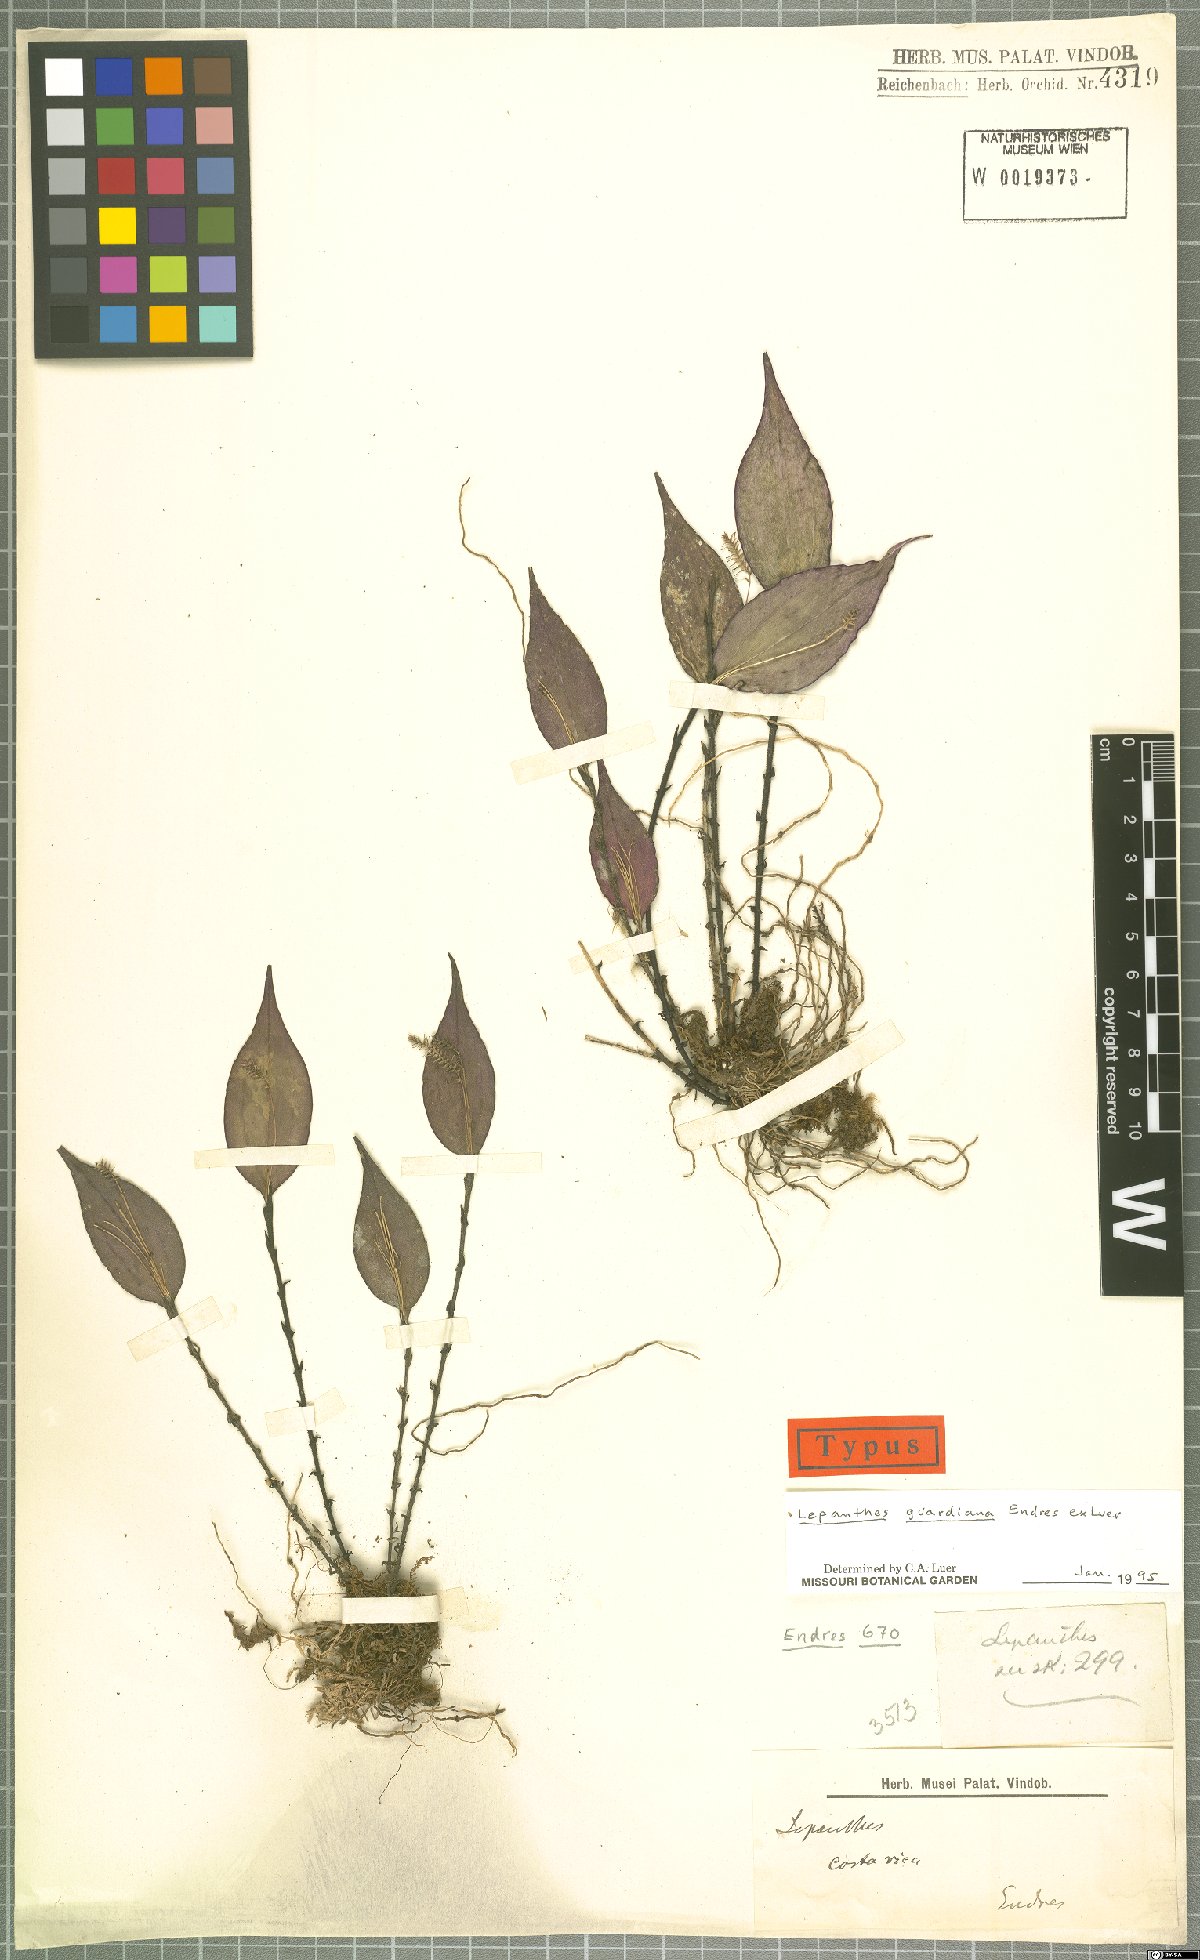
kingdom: Plantae
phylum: Tracheophyta
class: Liliopsida
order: Asparagales
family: Orchidaceae
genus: Lepanthes
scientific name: Lepanthes guardiana
